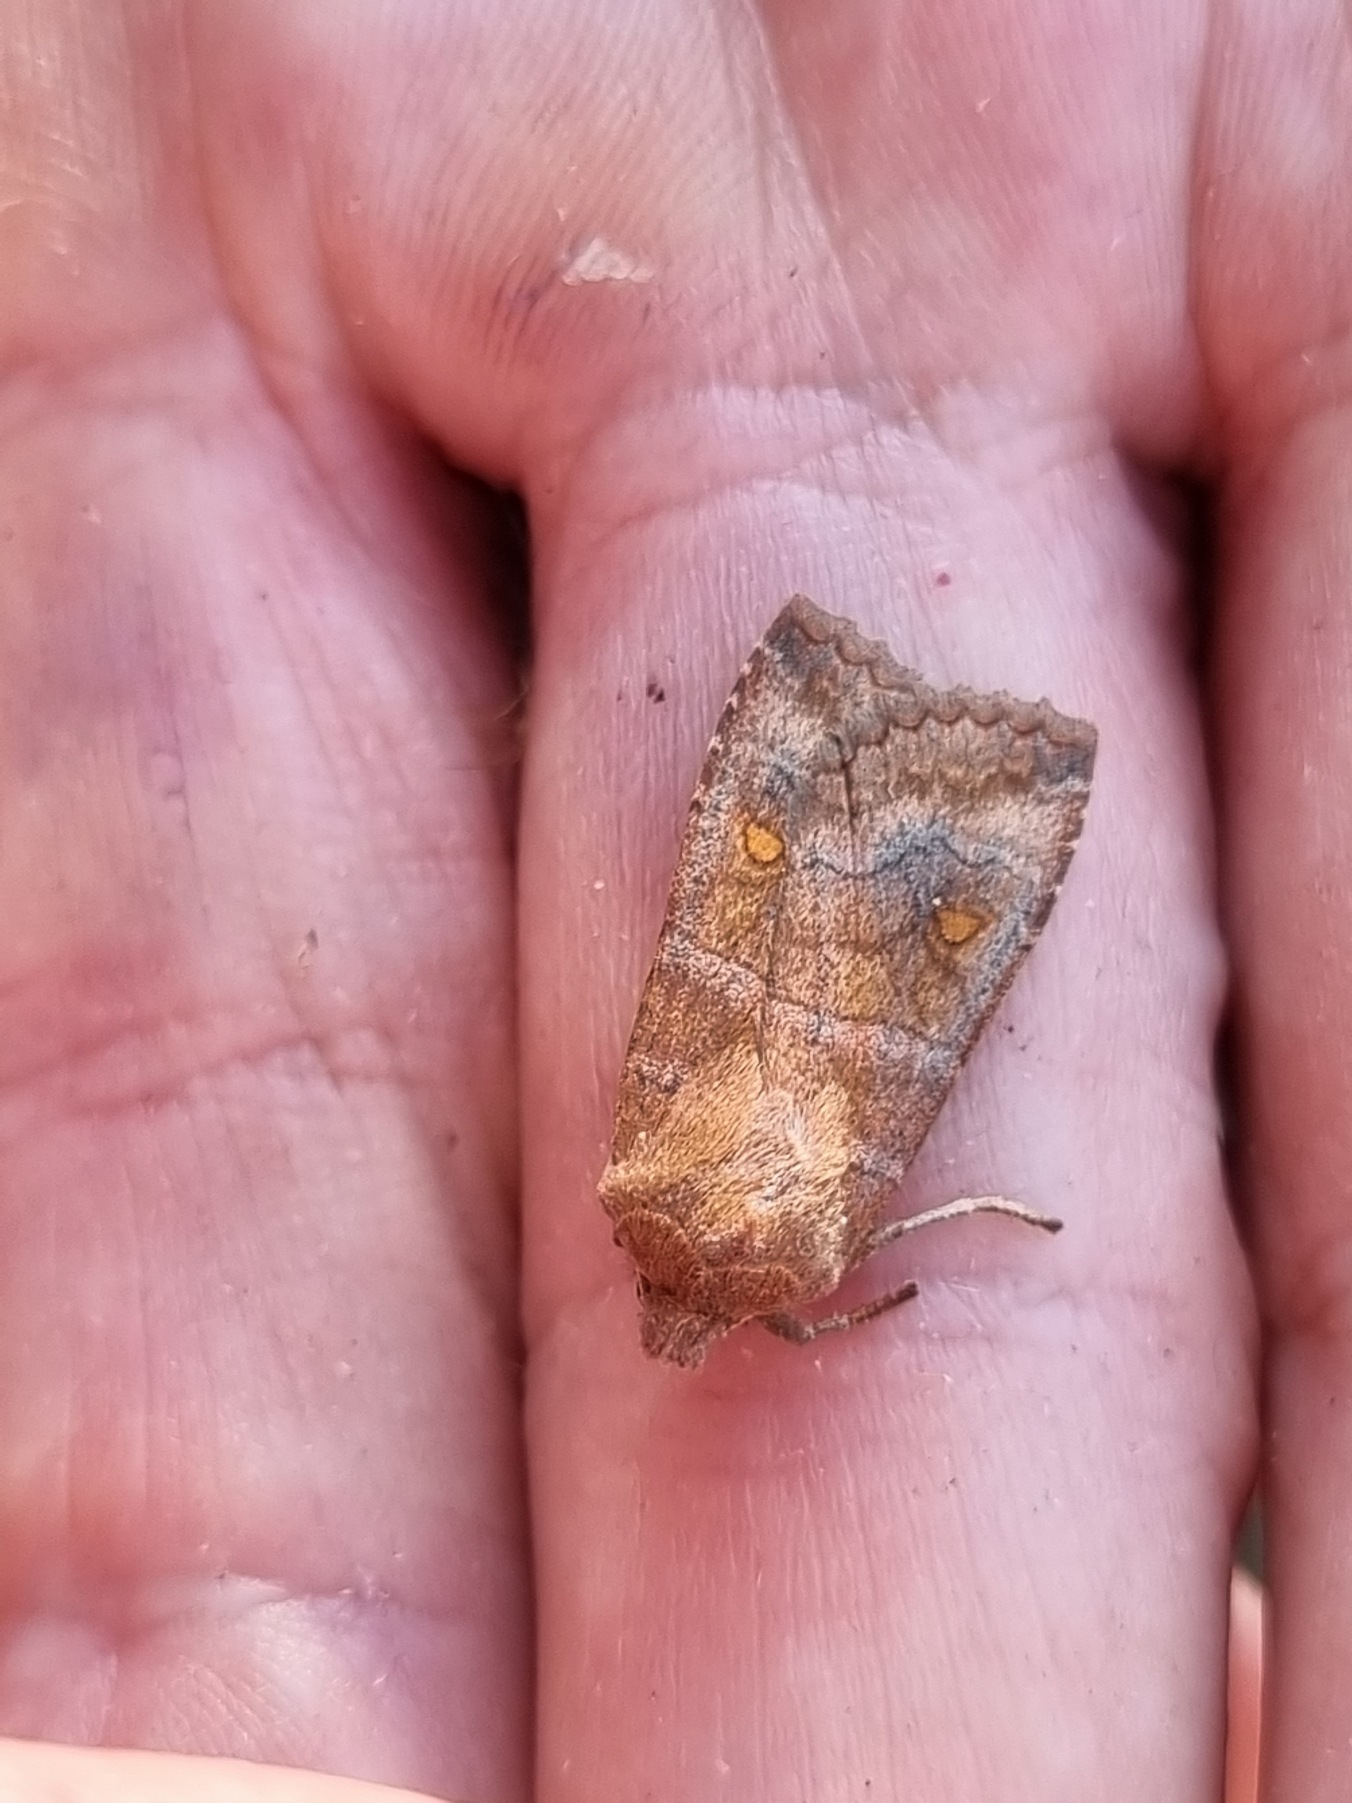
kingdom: Animalia
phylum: Arthropoda
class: Insecta
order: Lepidoptera
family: Noctuidae
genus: Eupsilia
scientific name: Eupsilia transversa
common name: Satellitugle
